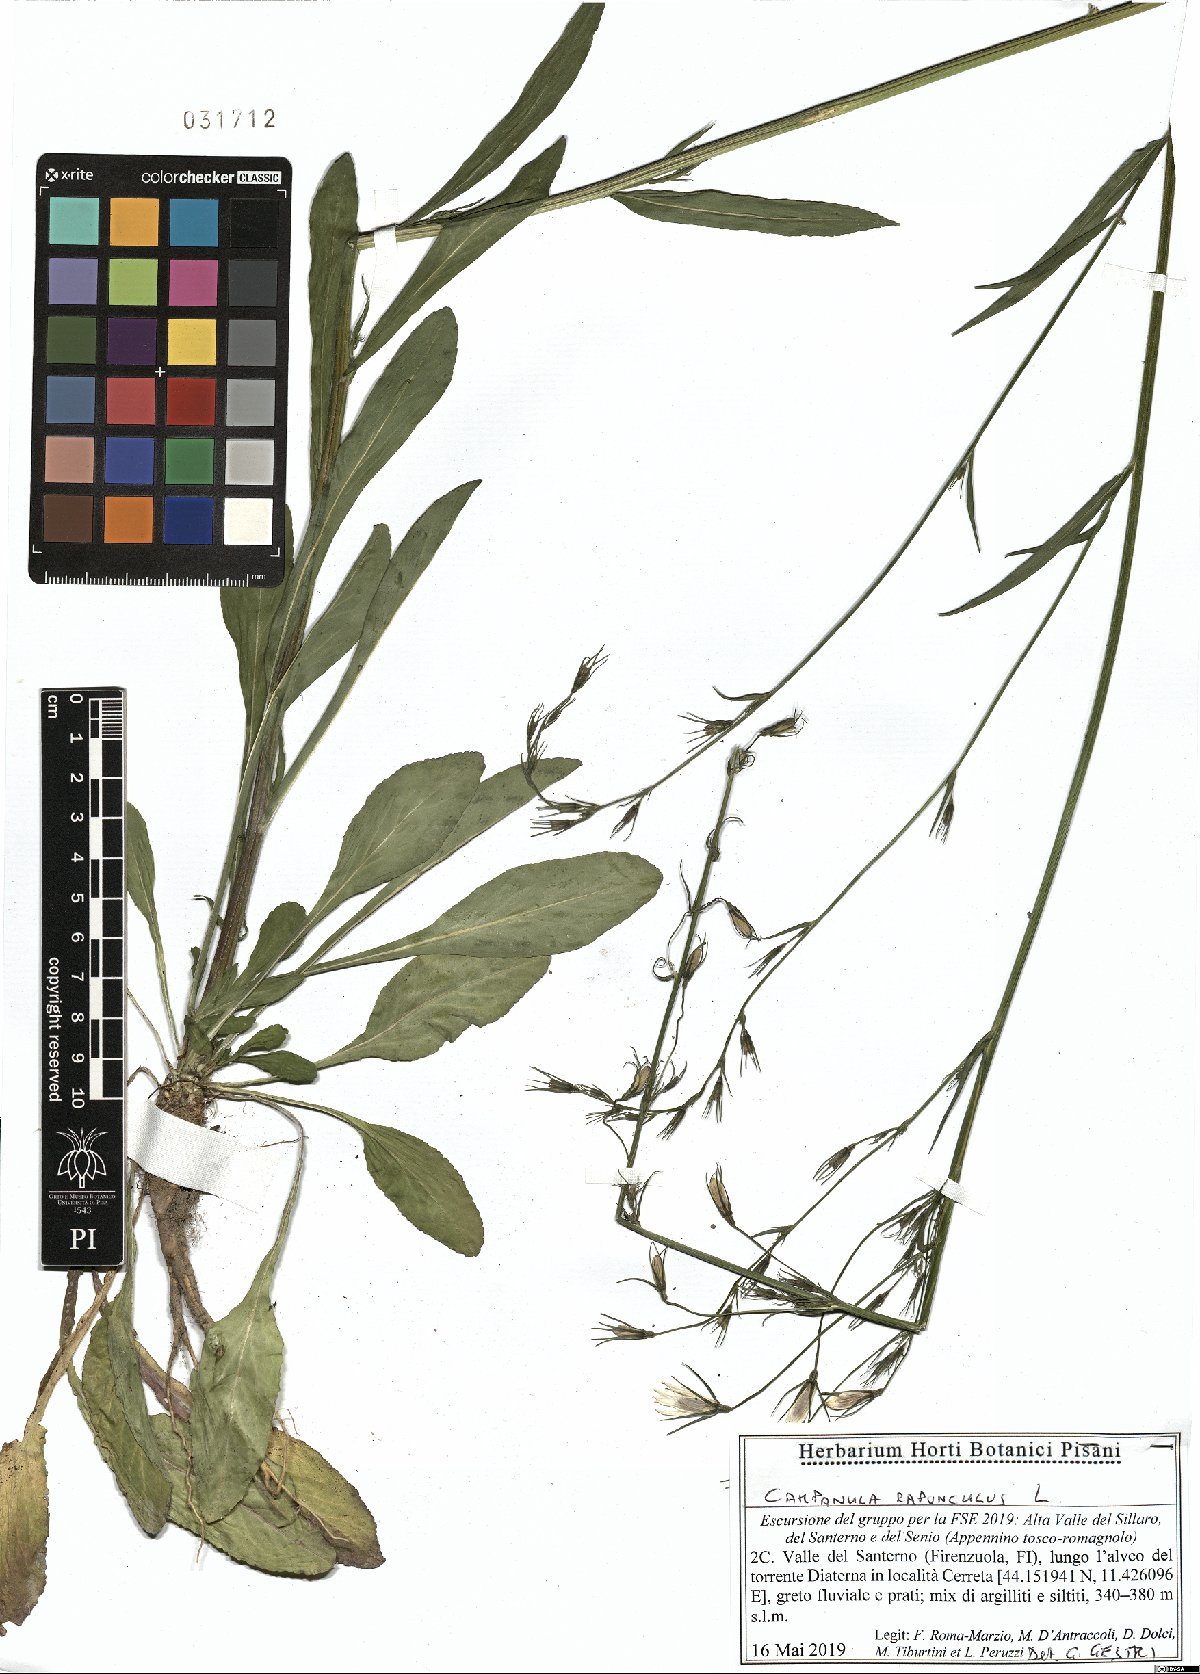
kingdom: Plantae
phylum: Tracheophyta
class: Magnoliopsida
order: Asterales
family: Campanulaceae
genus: Campanula
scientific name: Campanula rapunculus
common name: Rampion bellflower
